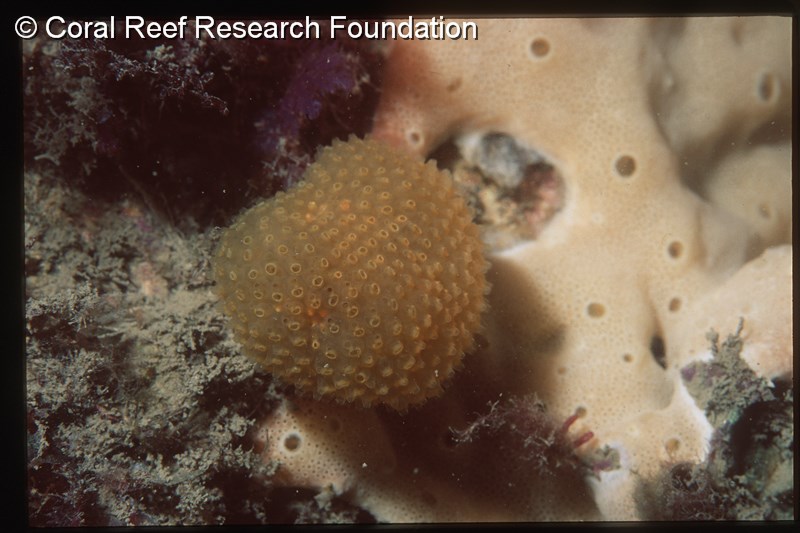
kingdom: Animalia
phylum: Chordata
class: Ascidiacea
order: Aplousobranchia
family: Pseudodistomidae
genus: Pseudodistoma
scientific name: Pseudodistoma
